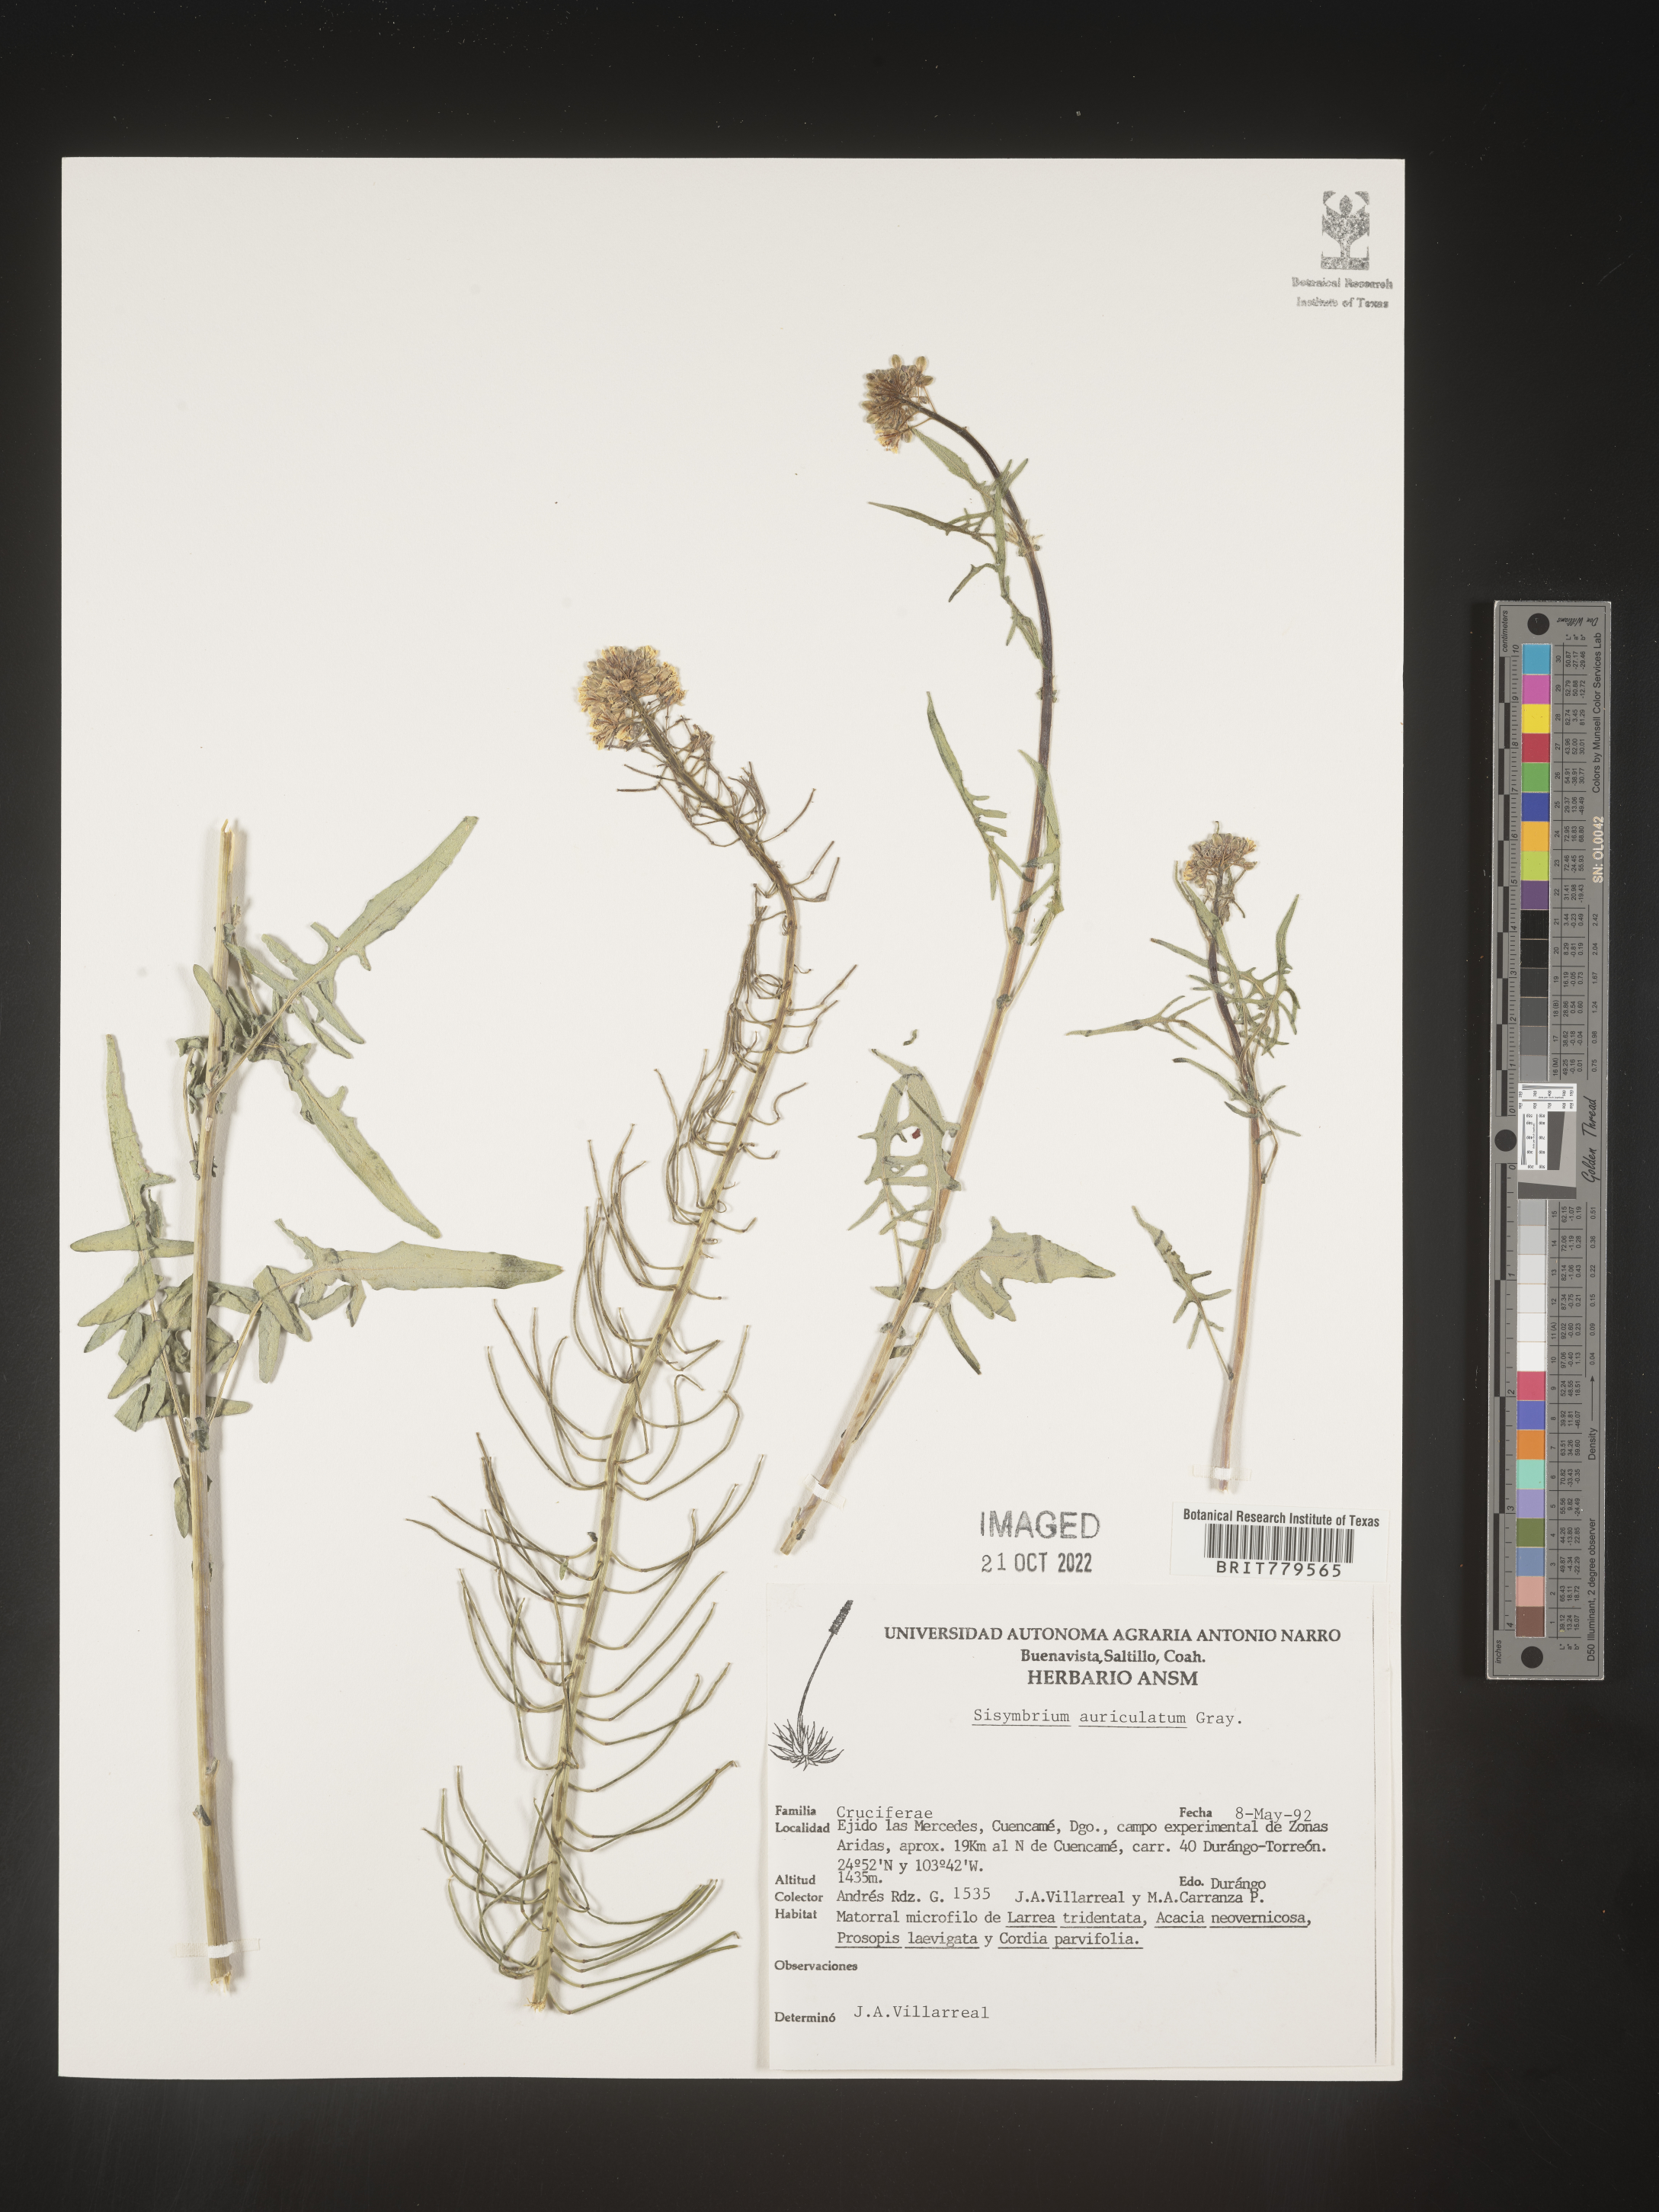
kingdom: Plantae
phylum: Tracheophyta
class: Magnoliopsida
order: Brassicales
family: Brassicaceae
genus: Sisymbrium
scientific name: Sisymbrium
